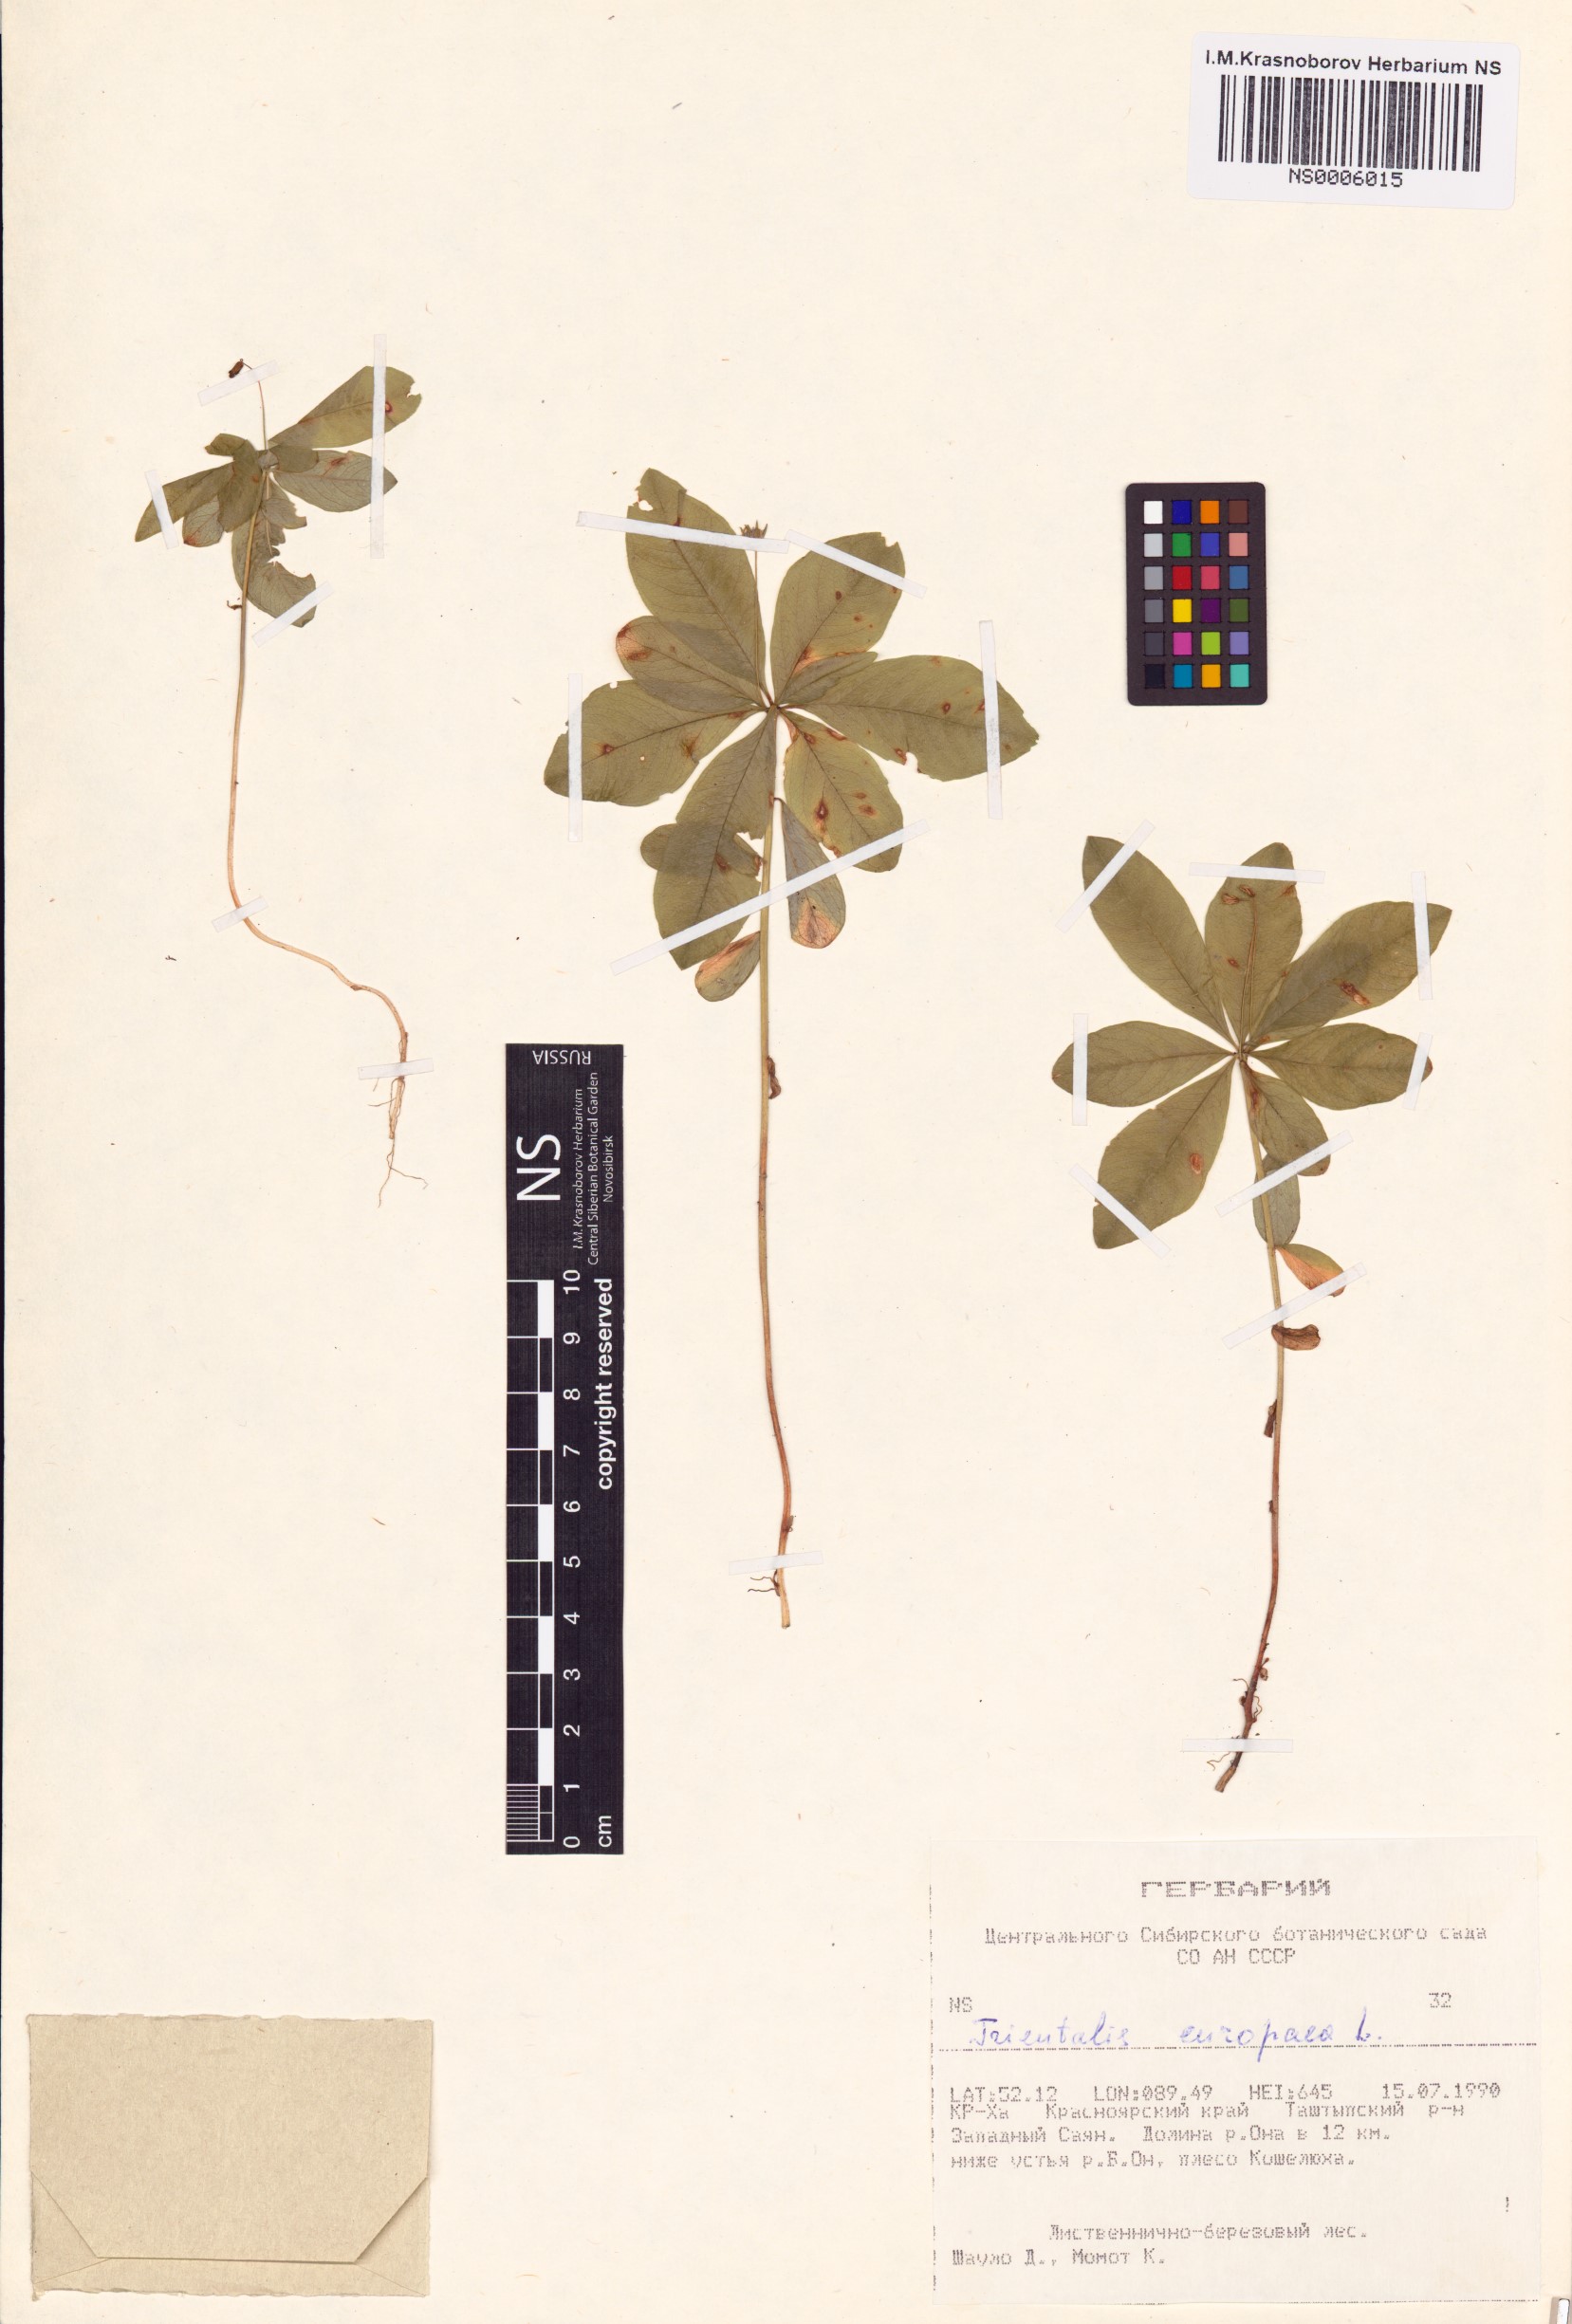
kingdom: Plantae
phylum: Tracheophyta
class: Magnoliopsida
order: Ericales
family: Primulaceae
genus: Lysimachia
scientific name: Lysimachia europaea
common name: Arctic starflower
